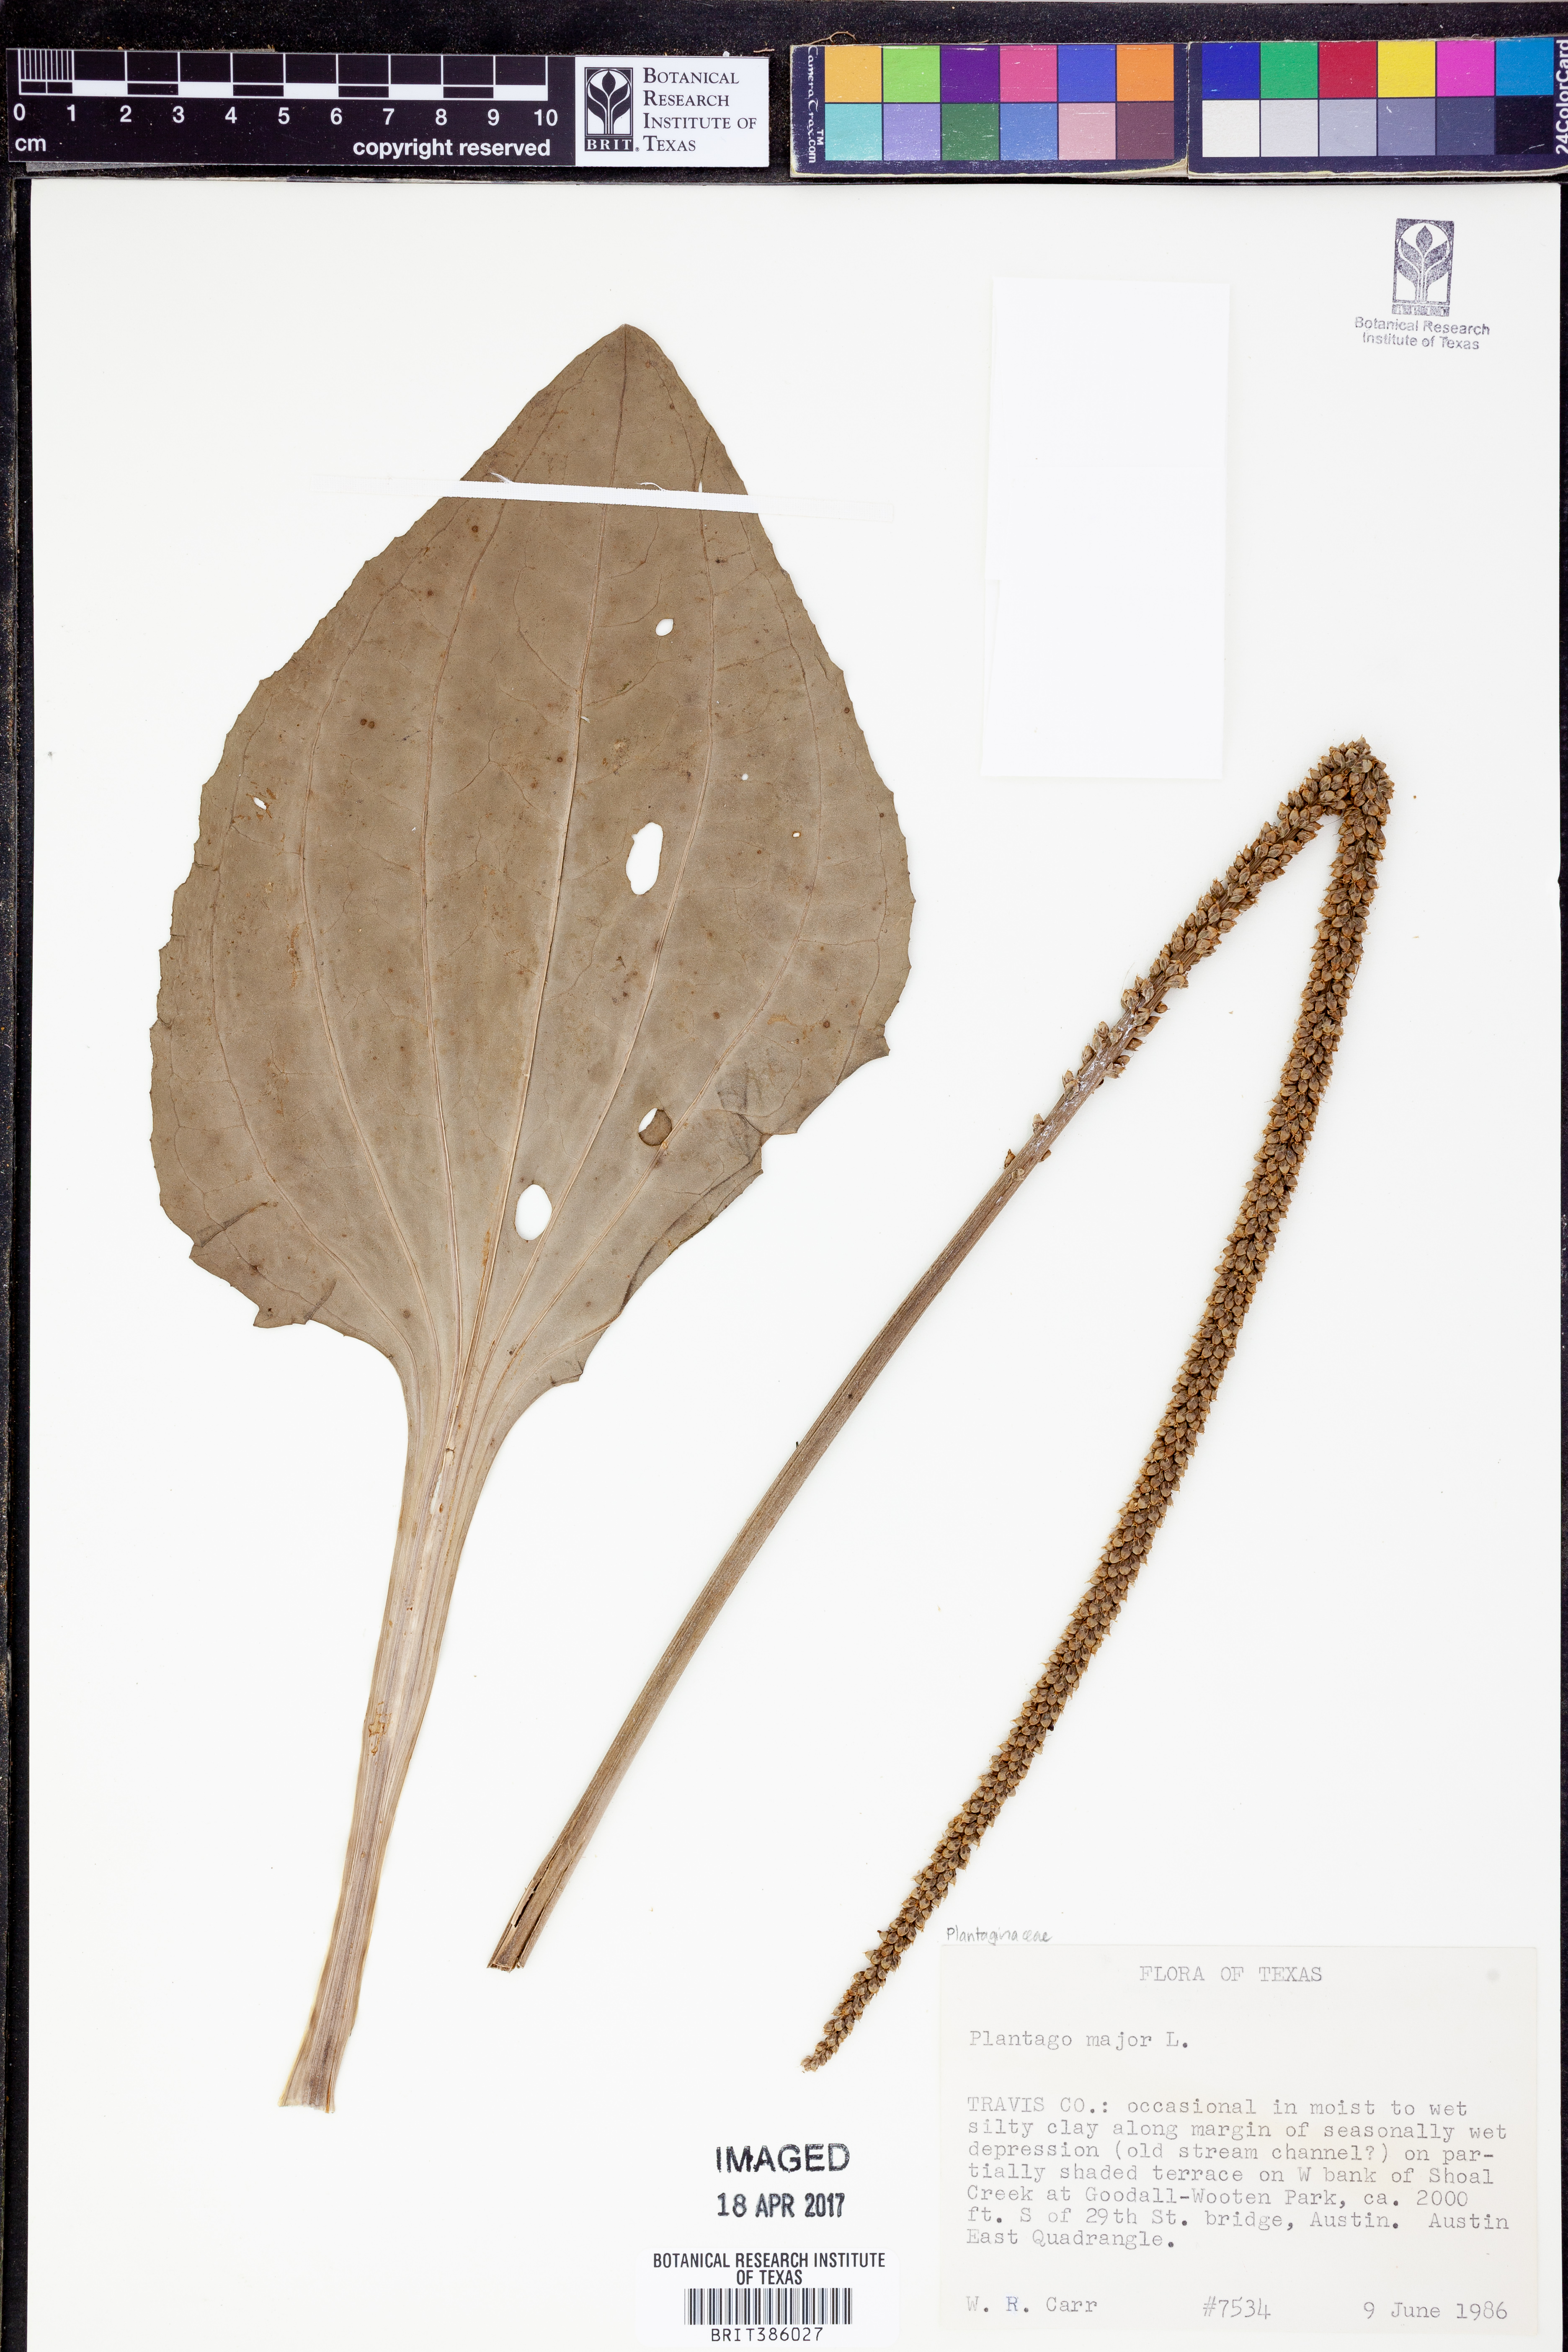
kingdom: Plantae
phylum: Tracheophyta
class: Magnoliopsida
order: Lamiales
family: Plantaginaceae
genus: Plantago
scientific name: Plantago major
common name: Common plantain
